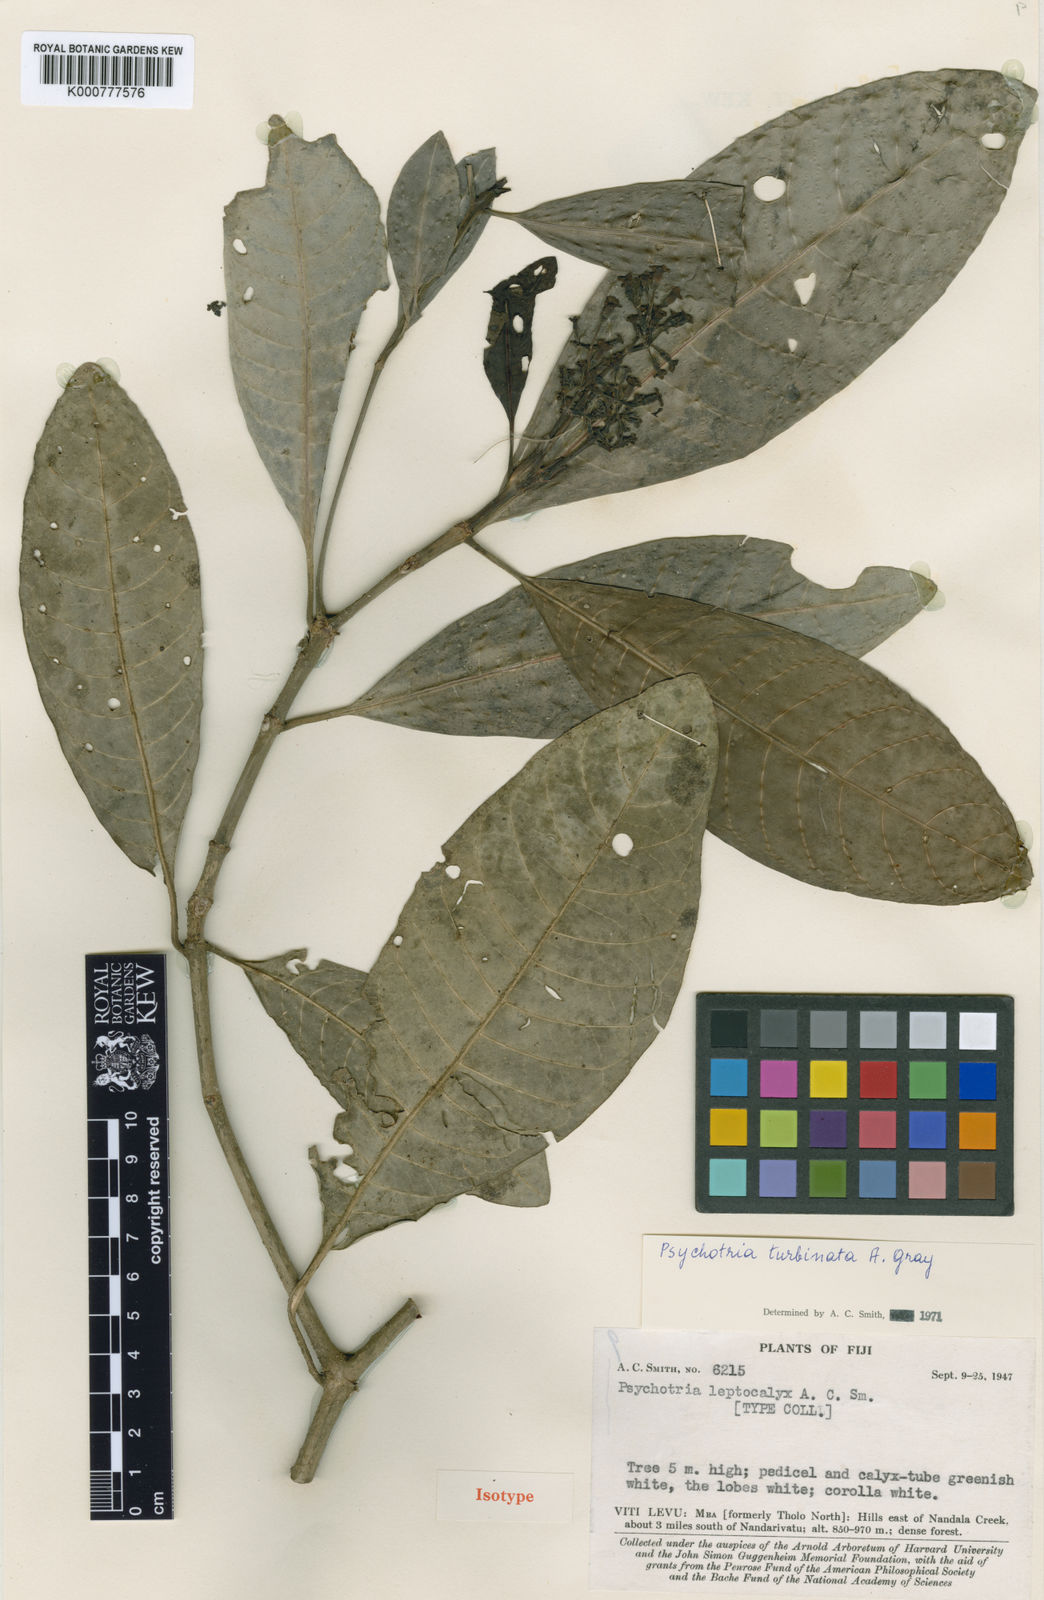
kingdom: Plantae
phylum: Tracheophyta
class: Magnoliopsida
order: Gentianales
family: Rubiaceae
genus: Psychotria
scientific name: Psychotria turbinata
